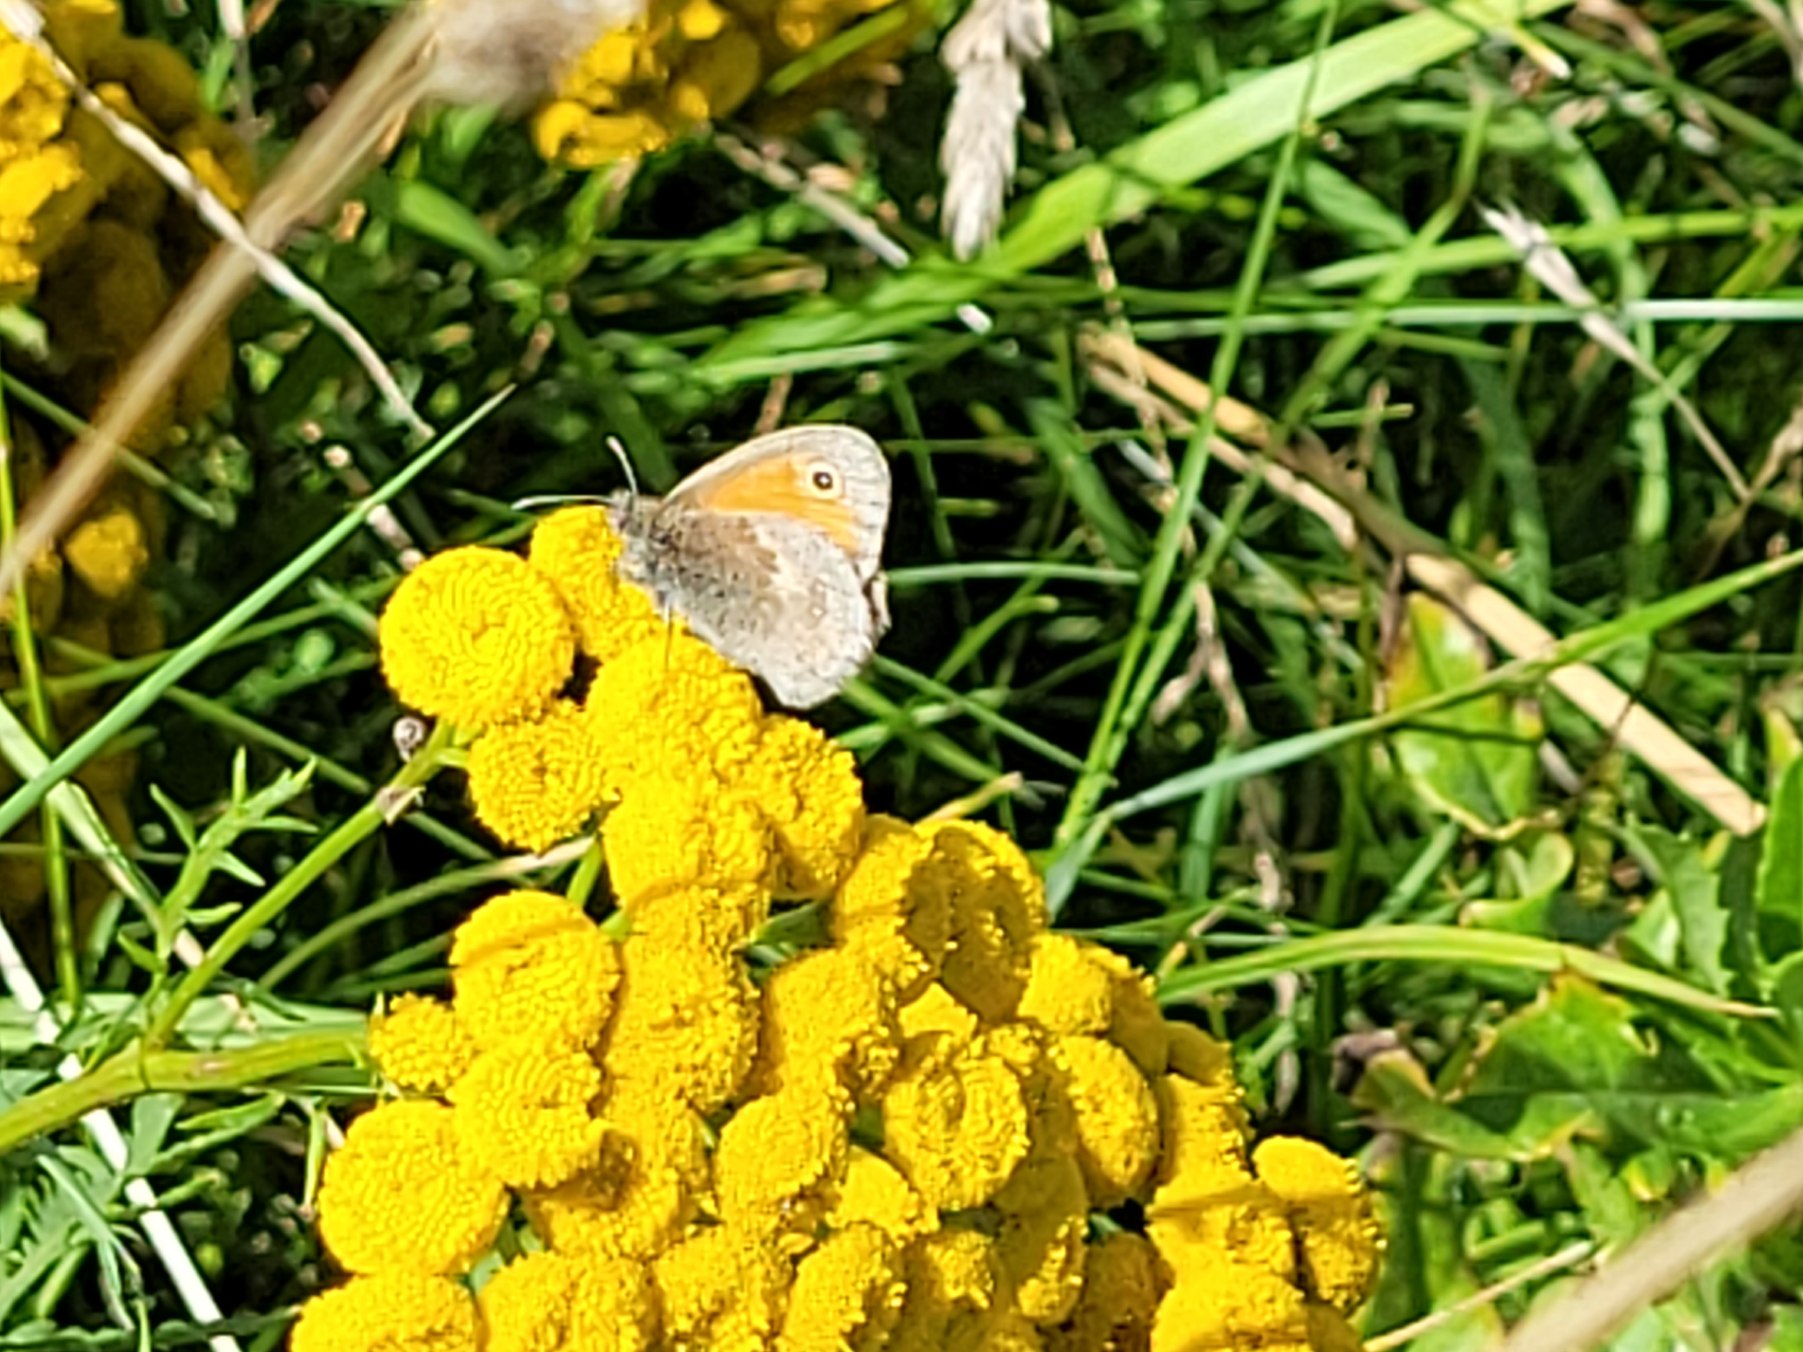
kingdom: Animalia
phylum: Arthropoda
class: Insecta
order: Lepidoptera
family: Nymphalidae
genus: Coenonympha
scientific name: Coenonympha pamphilus
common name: Okkergul randøje
